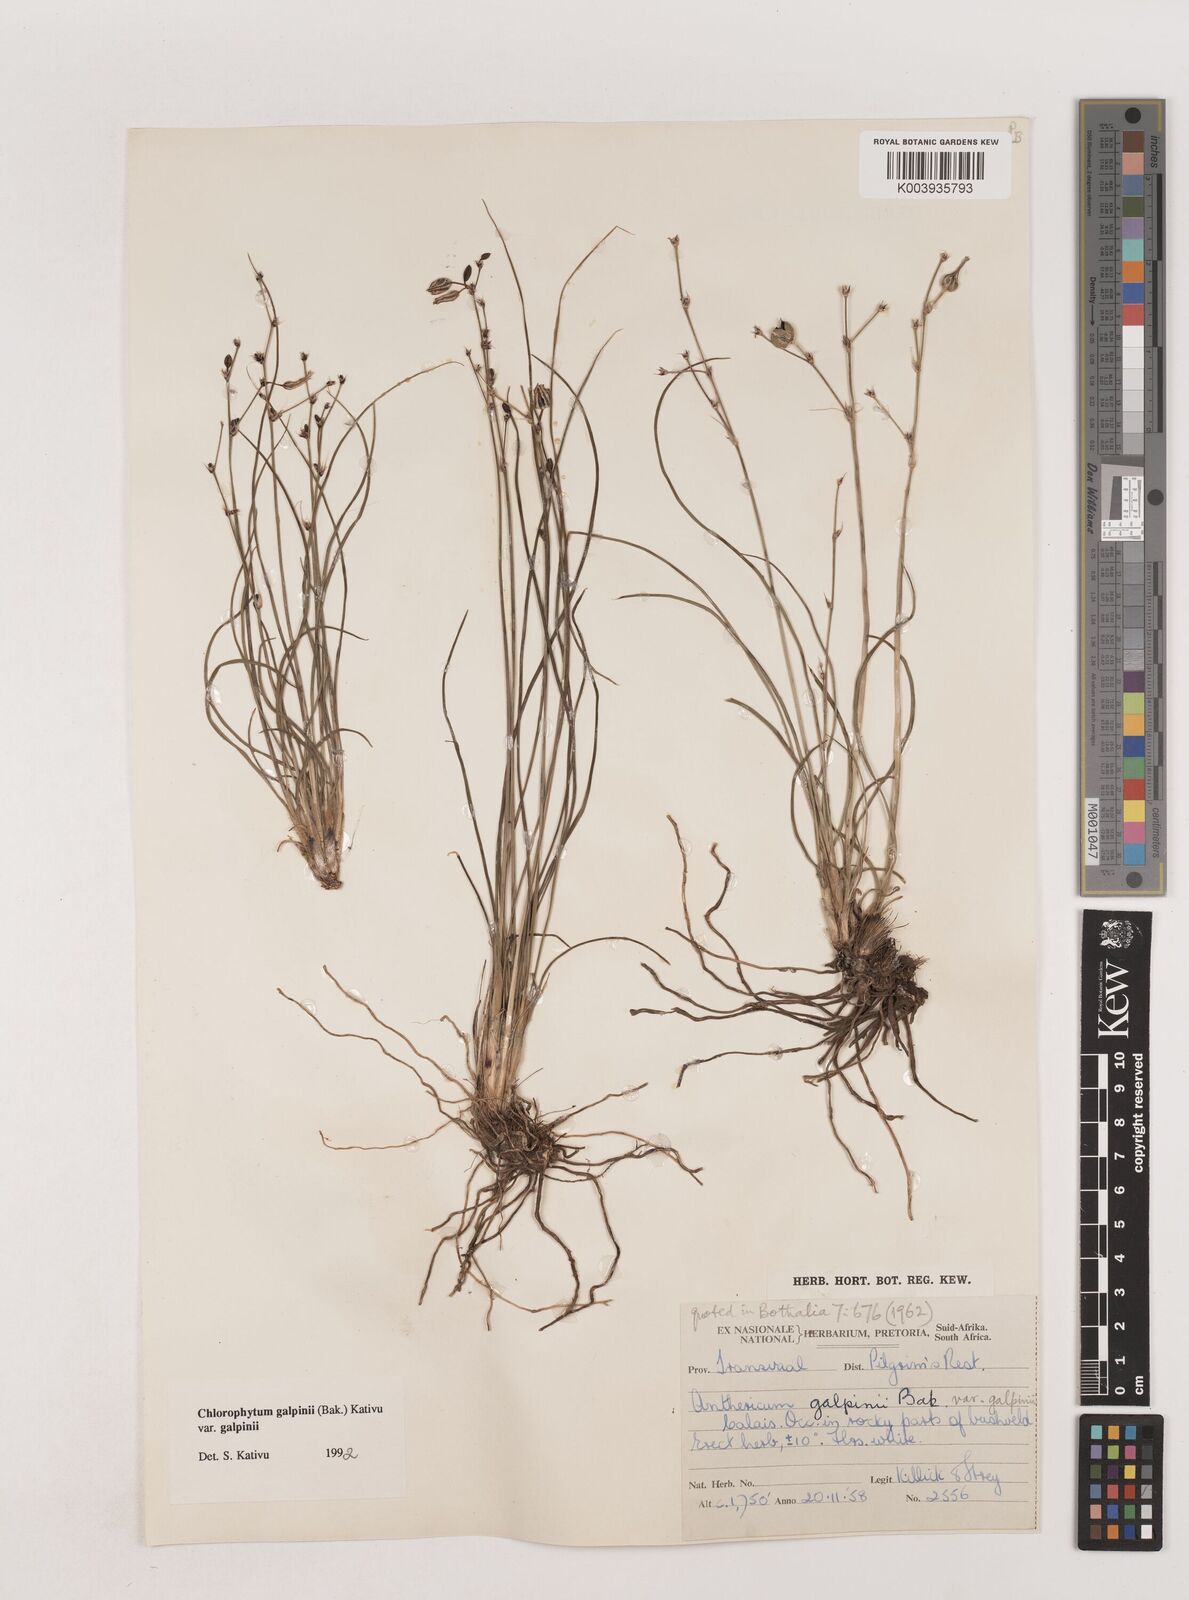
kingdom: Plantae
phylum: Tracheophyta
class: Liliopsida
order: Asparagales
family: Asparagaceae
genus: Chlorophytum
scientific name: Chlorophytum galpinii
